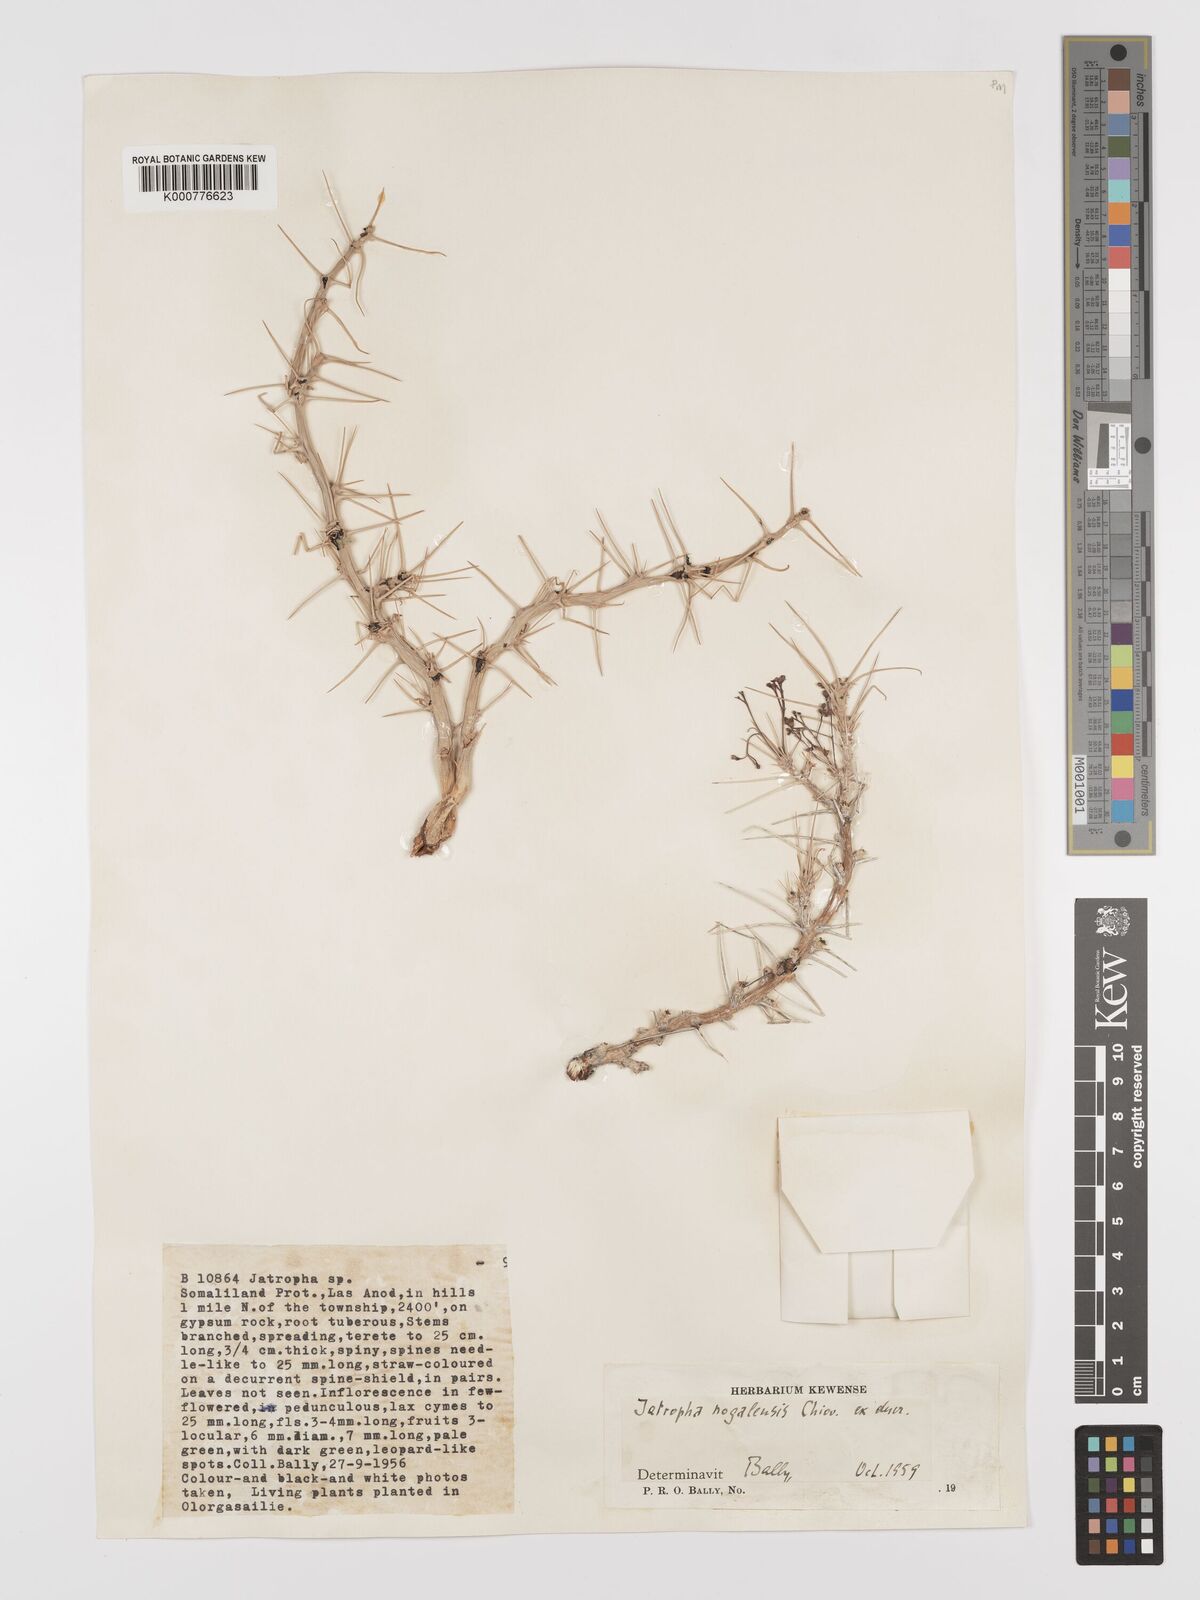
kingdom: Plantae
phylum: Tracheophyta
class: Magnoliopsida
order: Malpighiales
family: Euphorbiaceae
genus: Jatropha
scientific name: Jatropha nogalensis
